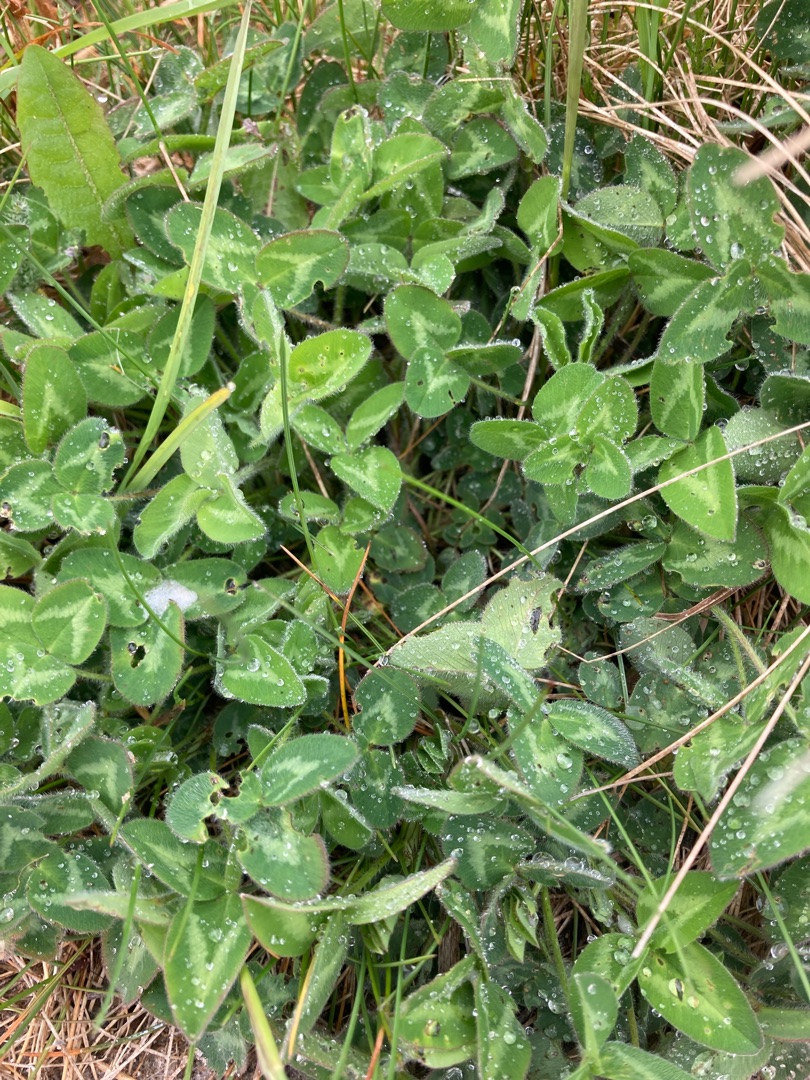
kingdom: Plantae
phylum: Tracheophyta
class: Magnoliopsida
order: Fabales
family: Fabaceae
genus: Trifolium
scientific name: Trifolium pratense
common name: Rød-kløver
